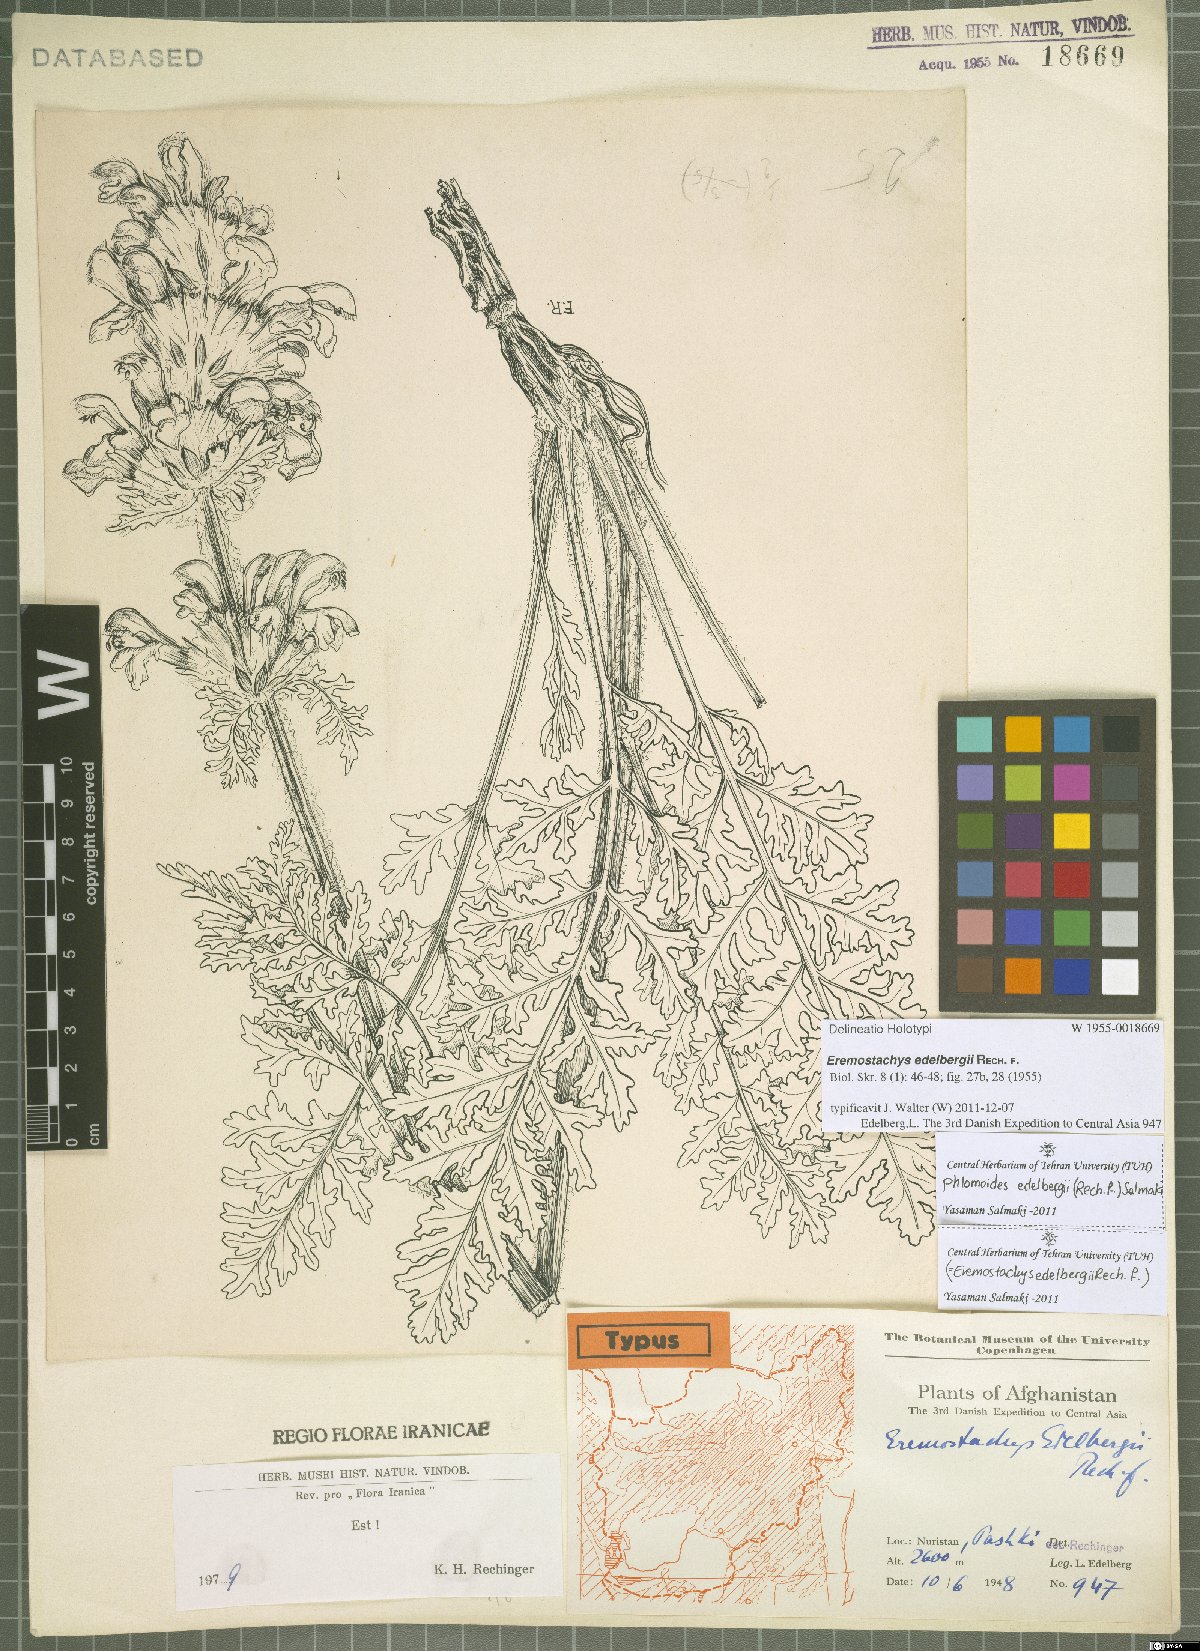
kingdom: Plantae
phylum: Tracheophyta
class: Magnoliopsida
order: Lamiales
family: Lamiaceae
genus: Phlomoides
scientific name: Phlomoides edelbergii
